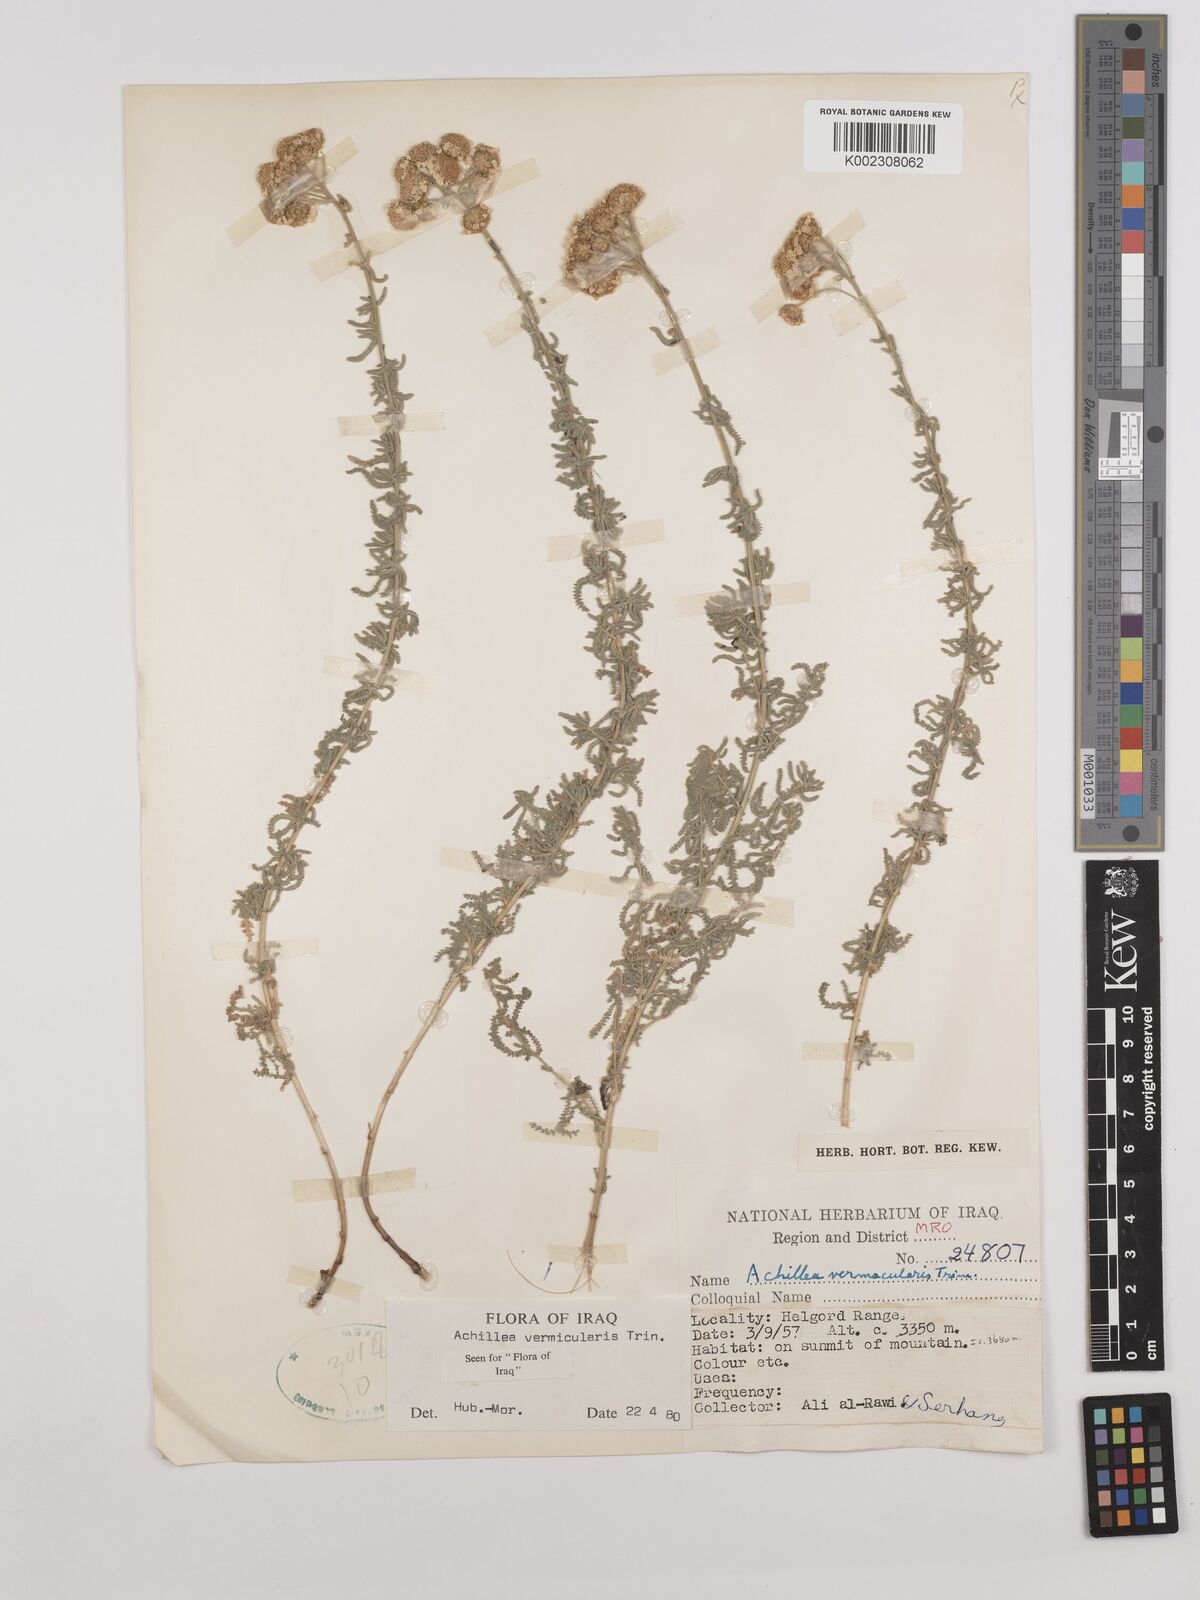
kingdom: Plantae
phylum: Tracheophyta
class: Magnoliopsida
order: Asterales
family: Asteraceae
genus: Achillea
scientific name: Achillea vermicularis
